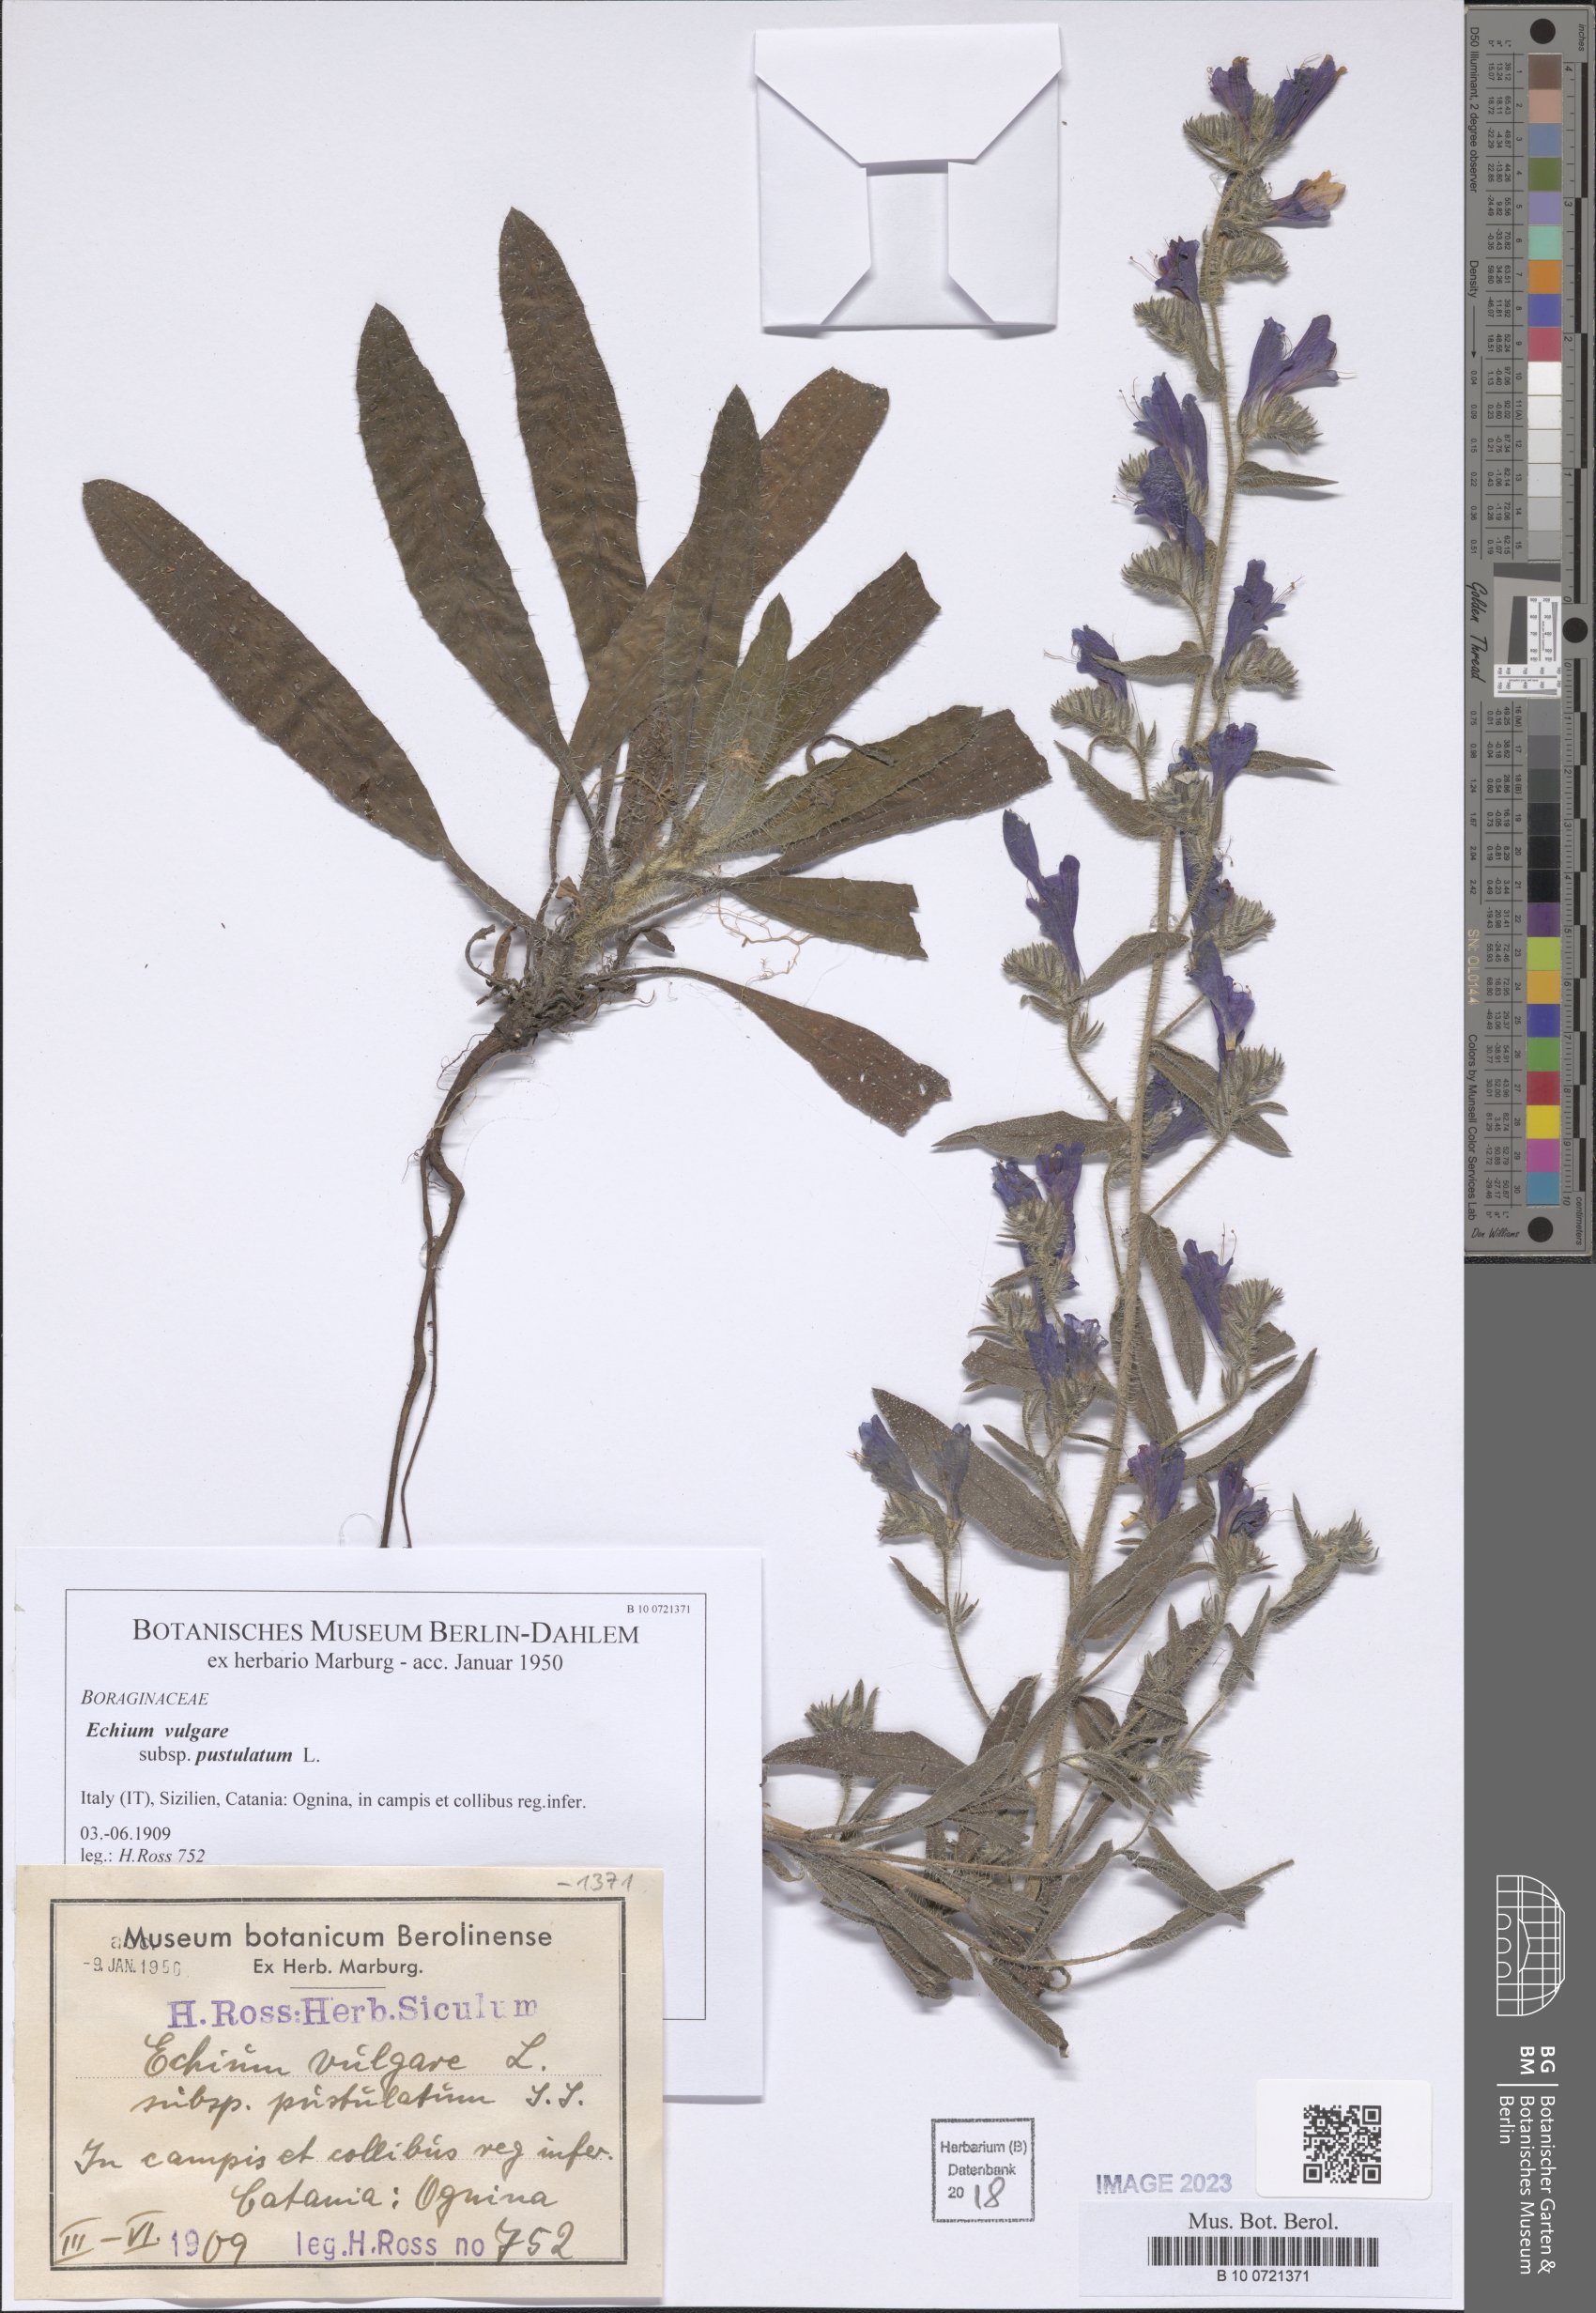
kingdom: Plantae
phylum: Tracheophyta
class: Magnoliopsida
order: Boraginales
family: Boraginaceae
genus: Echium
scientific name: Echium vulgare
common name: Common viper's bugloss
